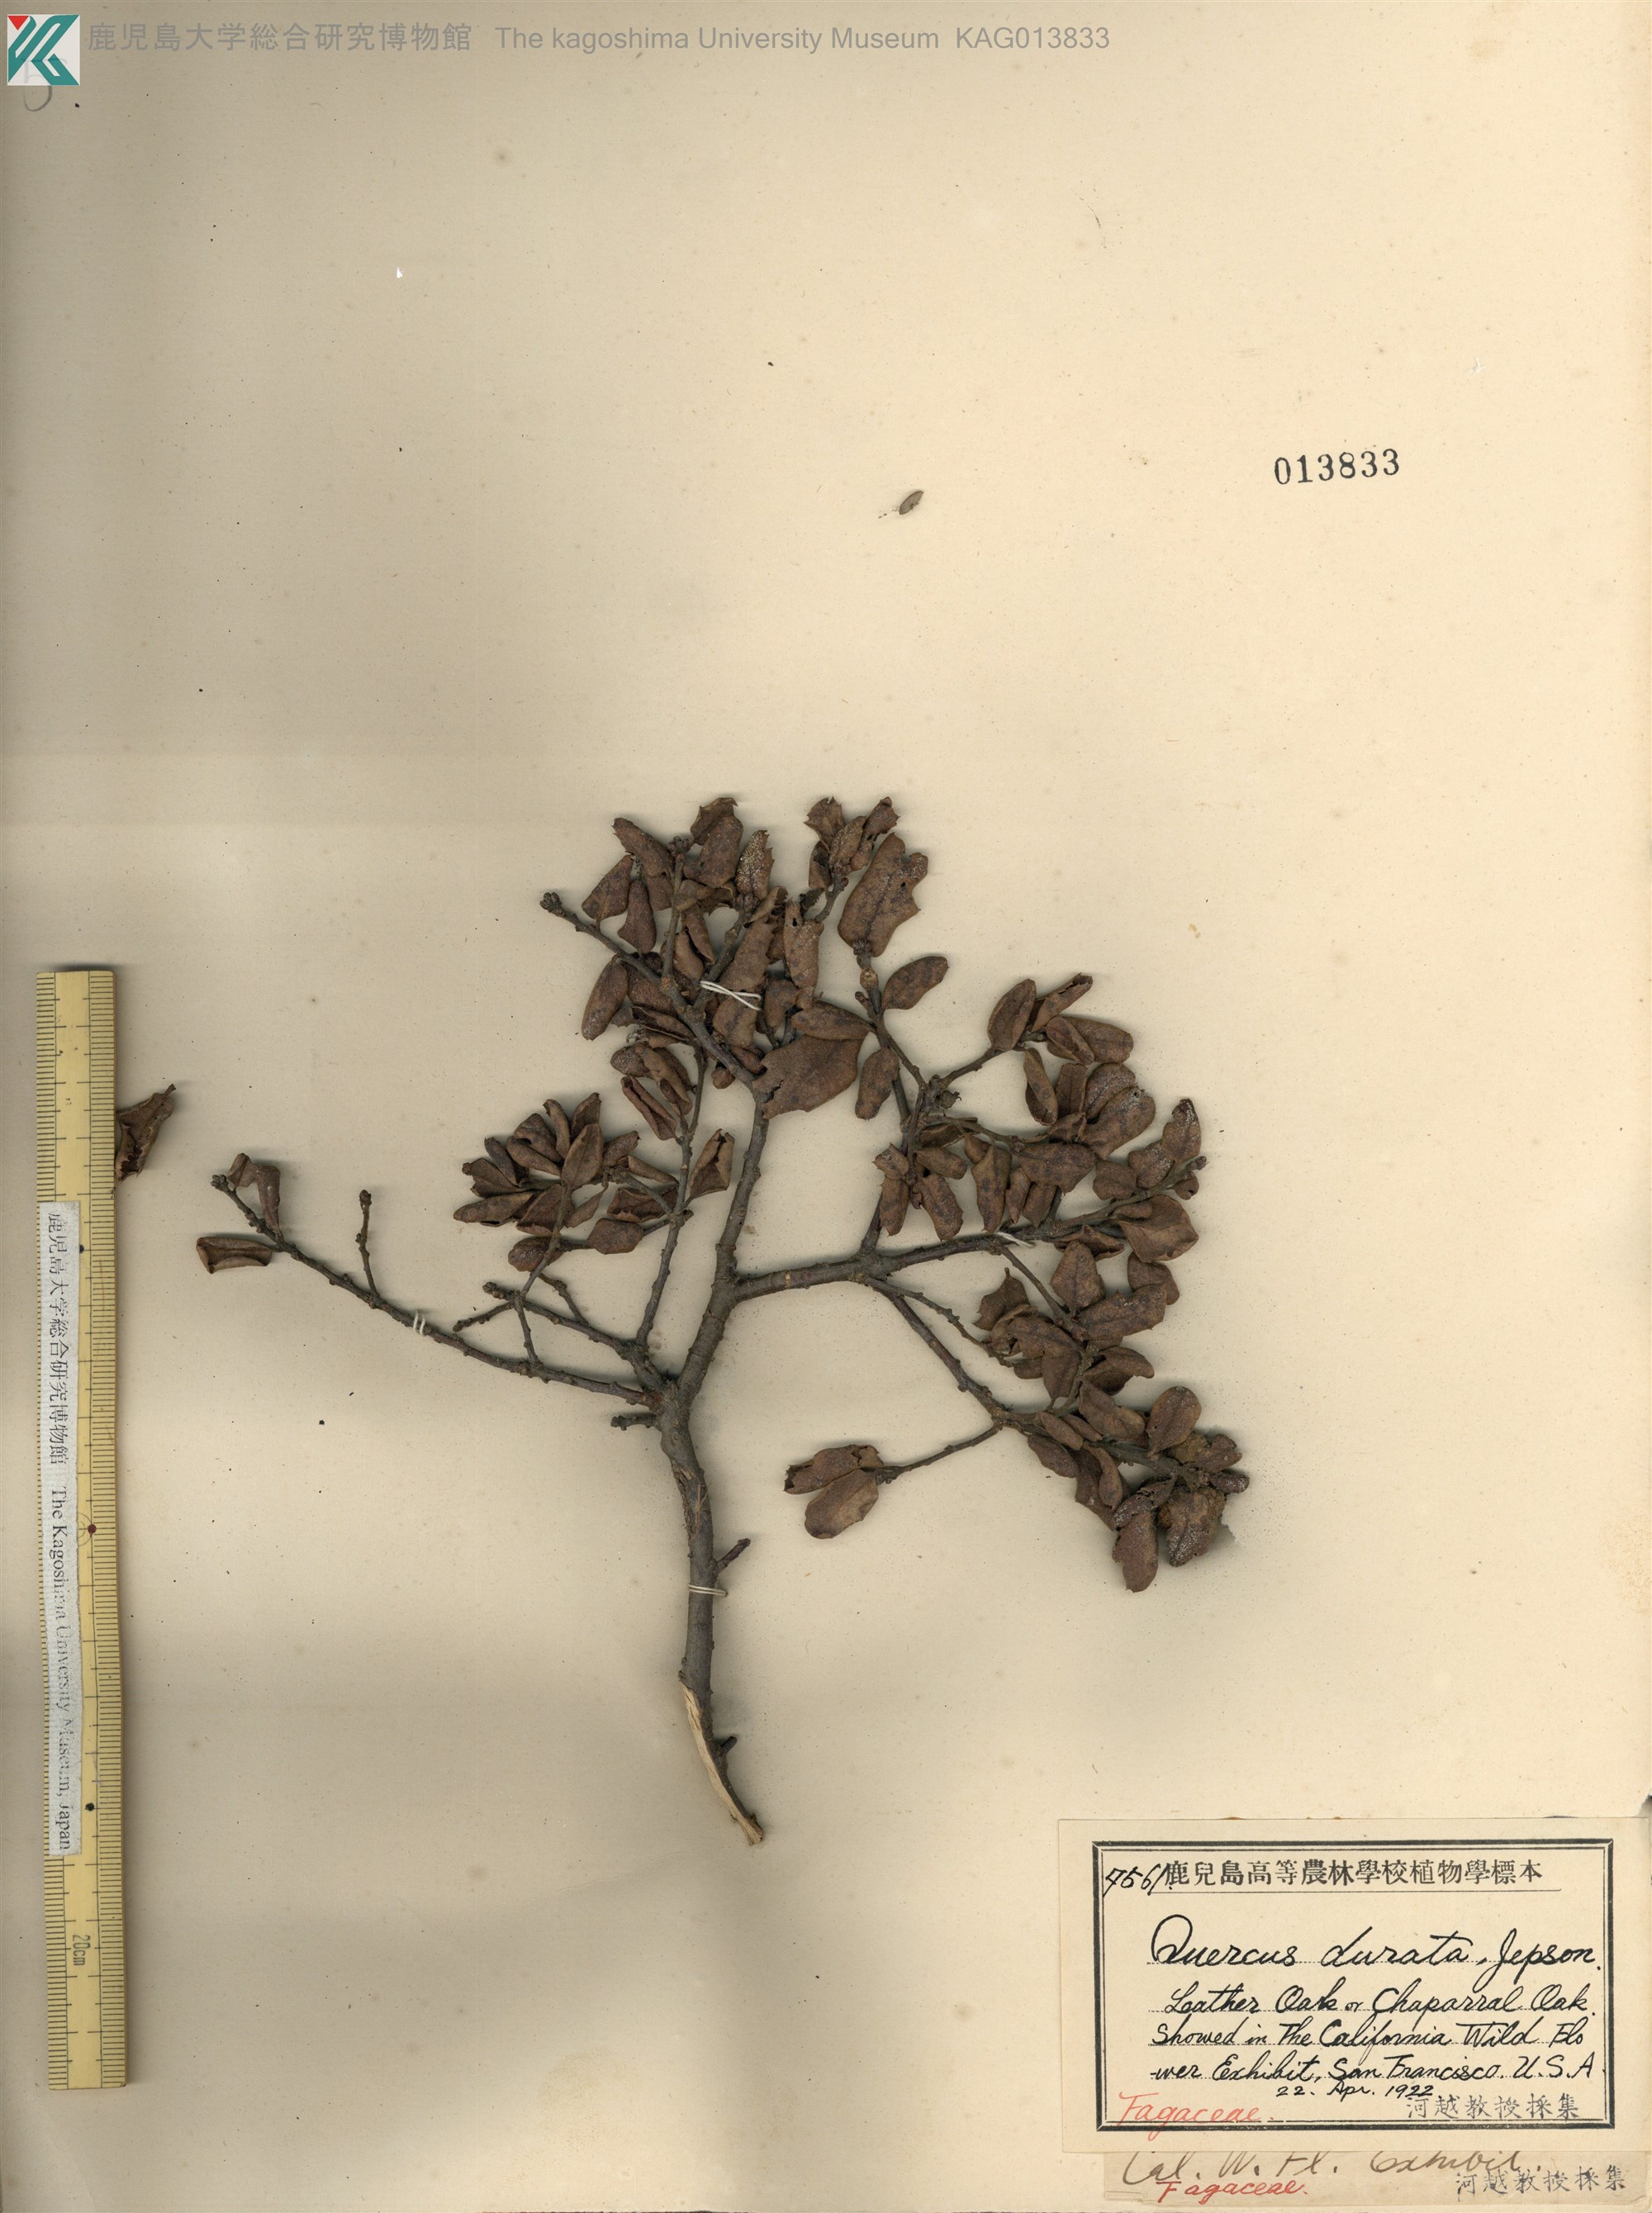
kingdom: Plantae
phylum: Tracheophyta
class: Magnoliopsida
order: Fagales
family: Fagaceae
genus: Quercus
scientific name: Quercus durata
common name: Leather oak
